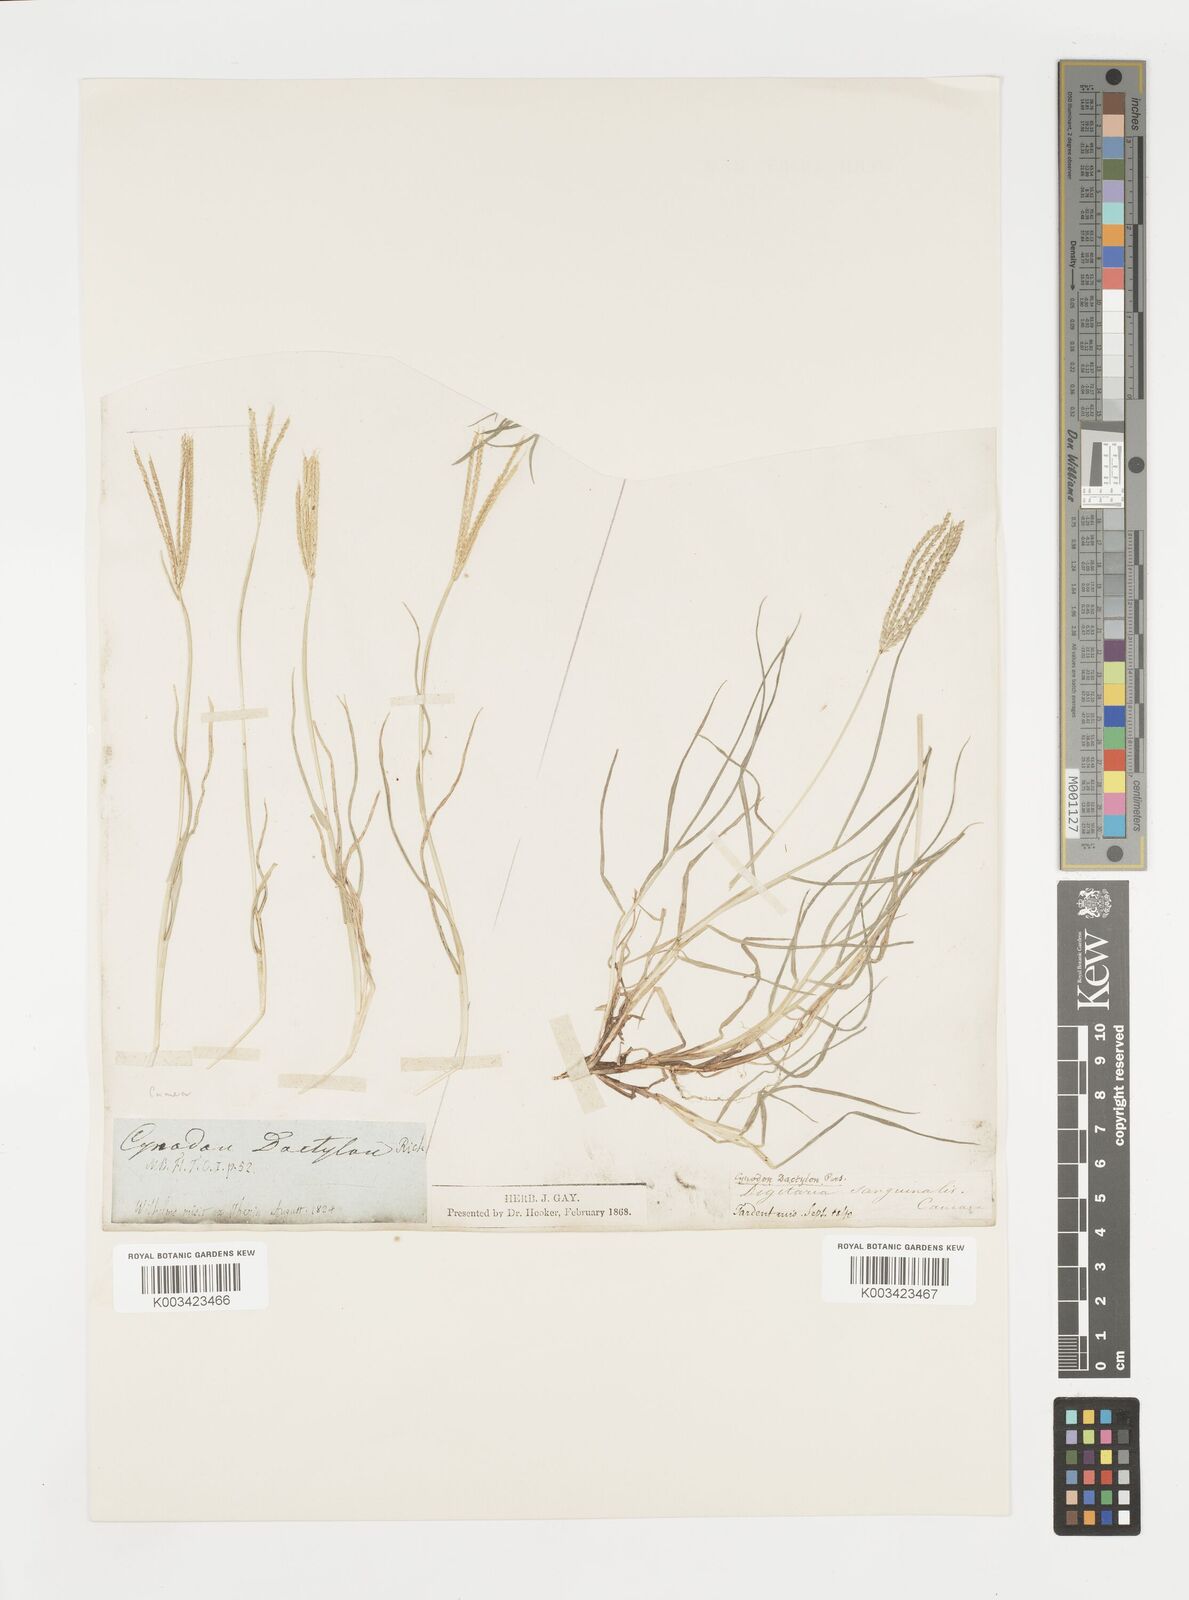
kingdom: Plantae
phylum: Tracheophyta
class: Liliopsida
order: Poales
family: Poaceae
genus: Cynodon
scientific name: Cynodon dactylon
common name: Bermuda grass
